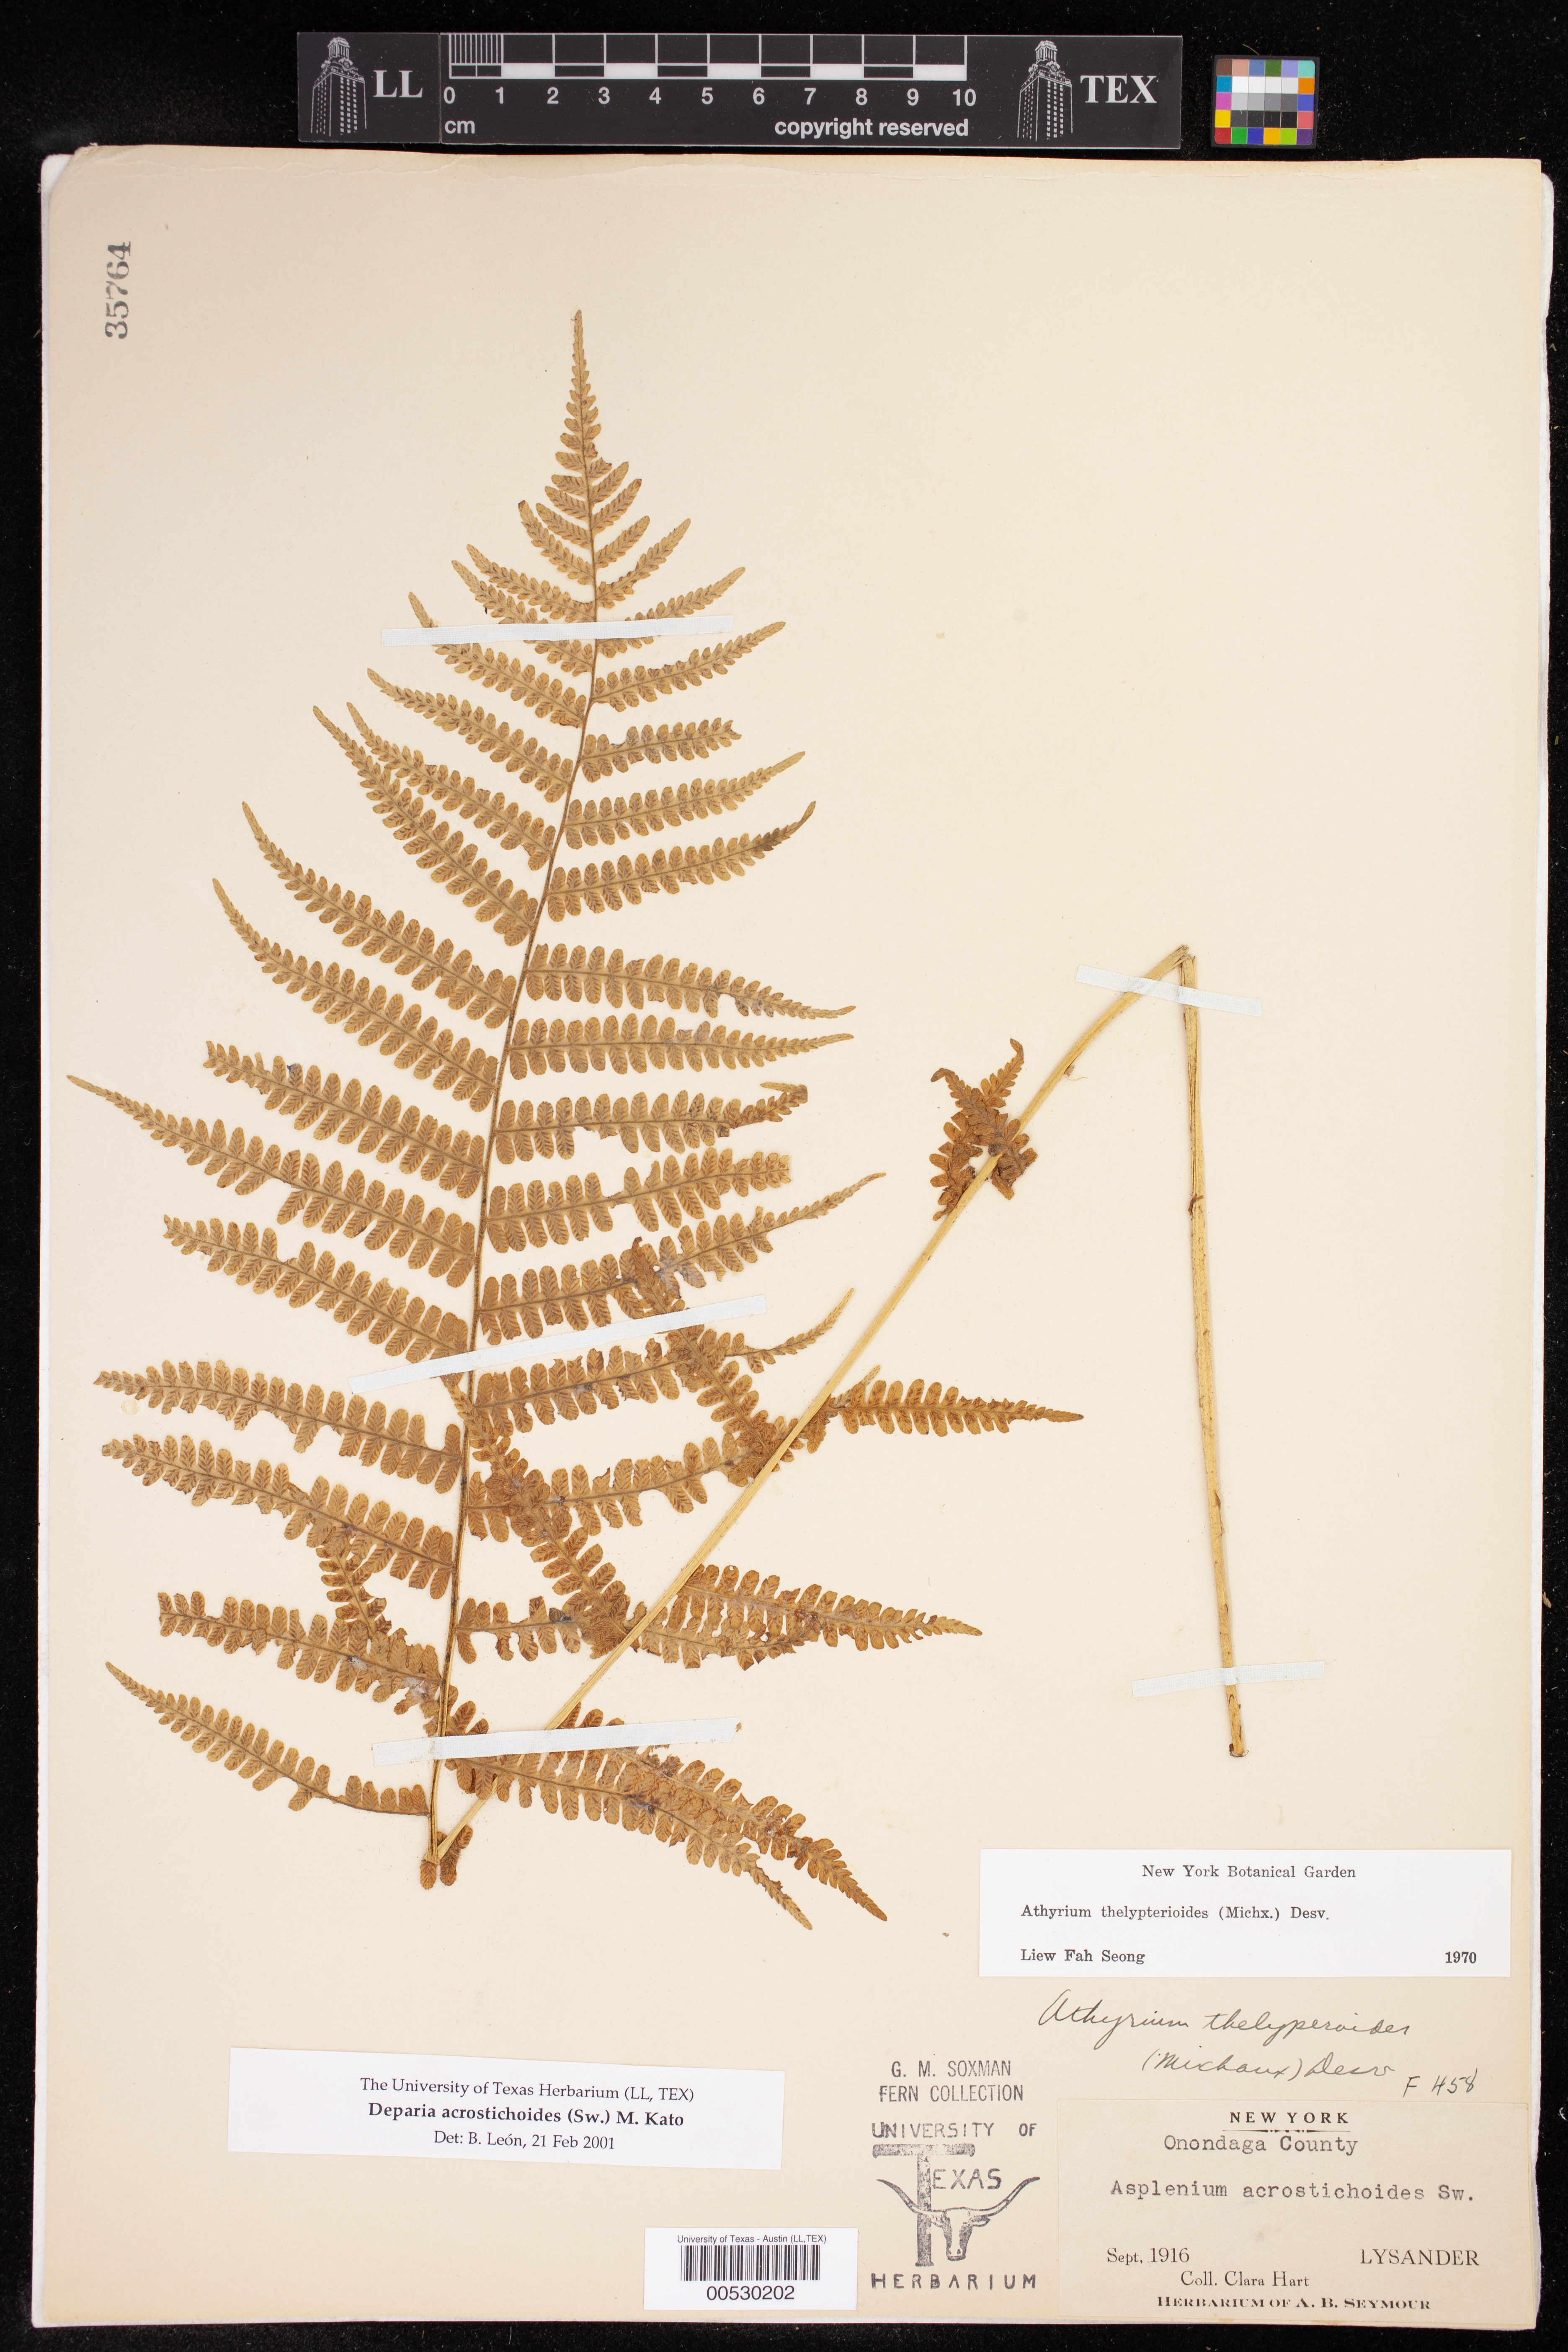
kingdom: Plantae
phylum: Tracheophyta
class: Polypodiopsida
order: Polypodiales
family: Athyriaceae
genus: Deparia
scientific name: Deparia acrostichoides
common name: Silver false spleenwort
